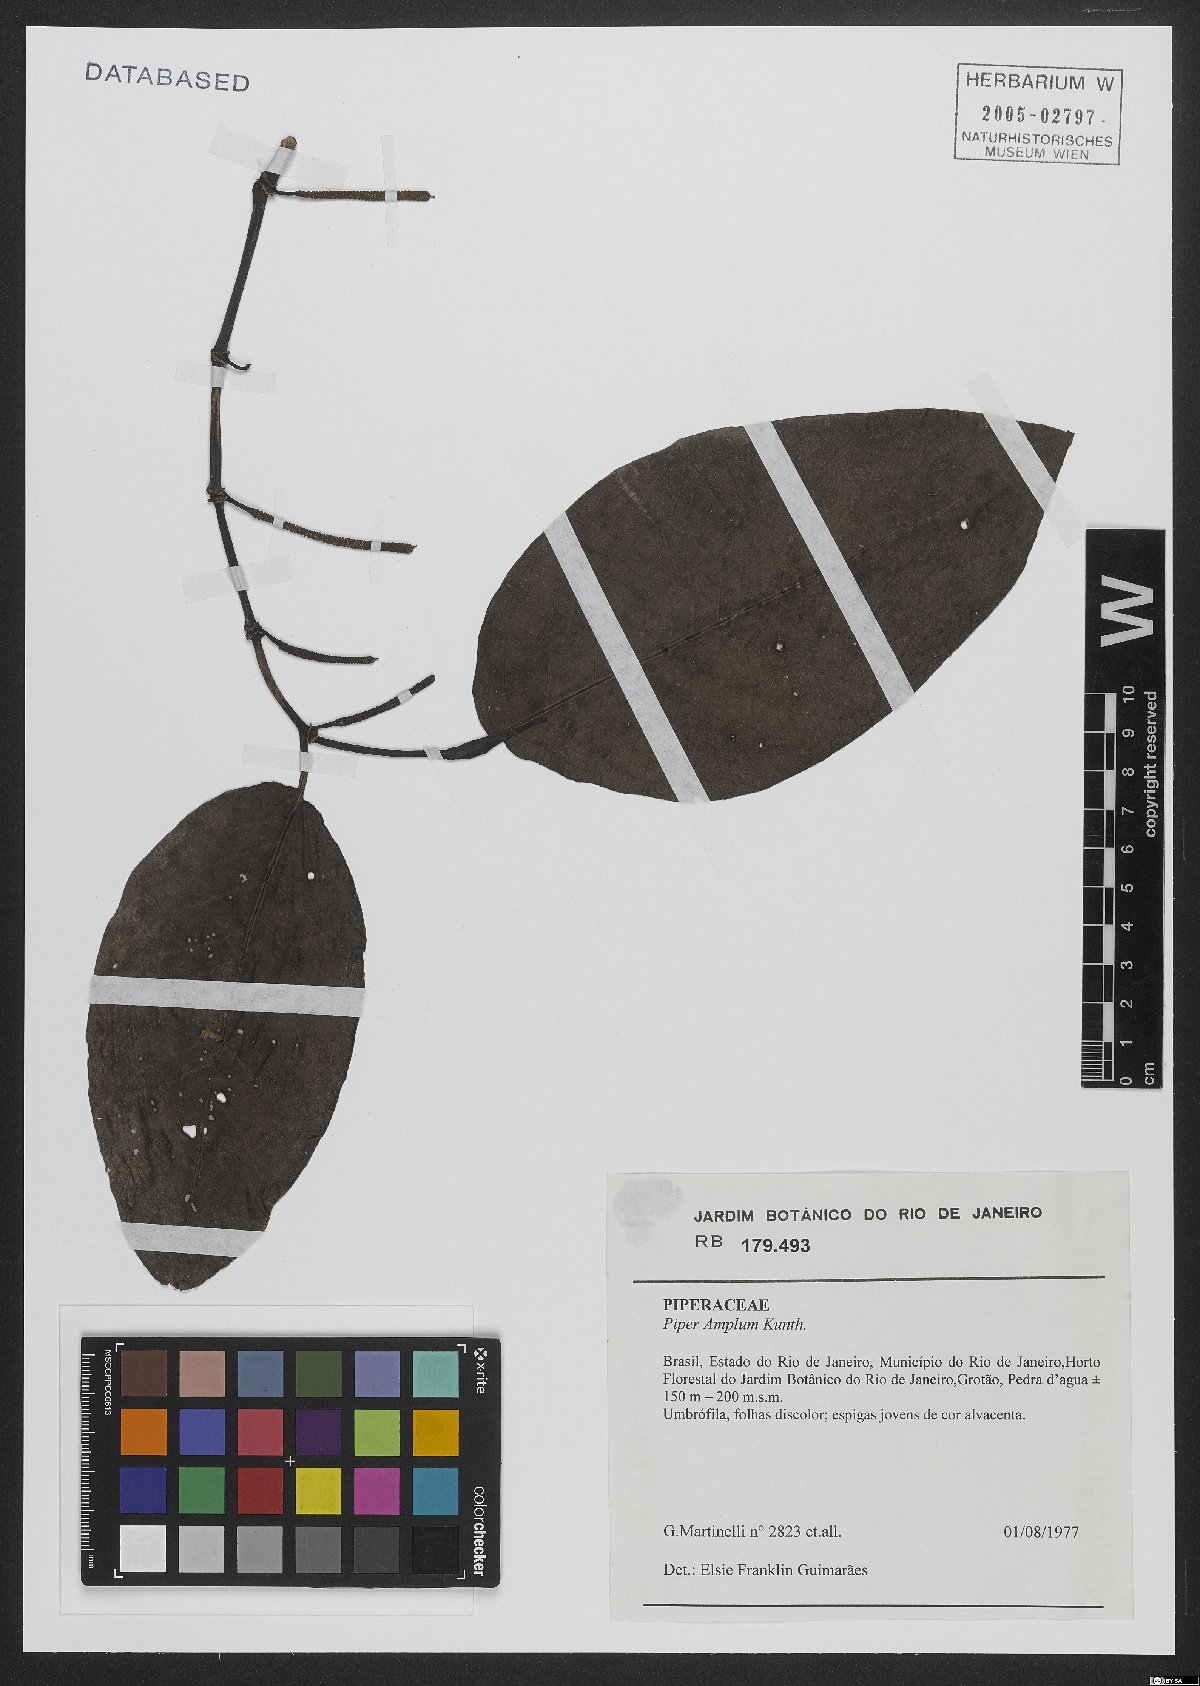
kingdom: Plantae
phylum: Tracheophyta
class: Magnoliopsida
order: Piperales
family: Piperaceae
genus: Piper
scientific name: Piper fluminense
